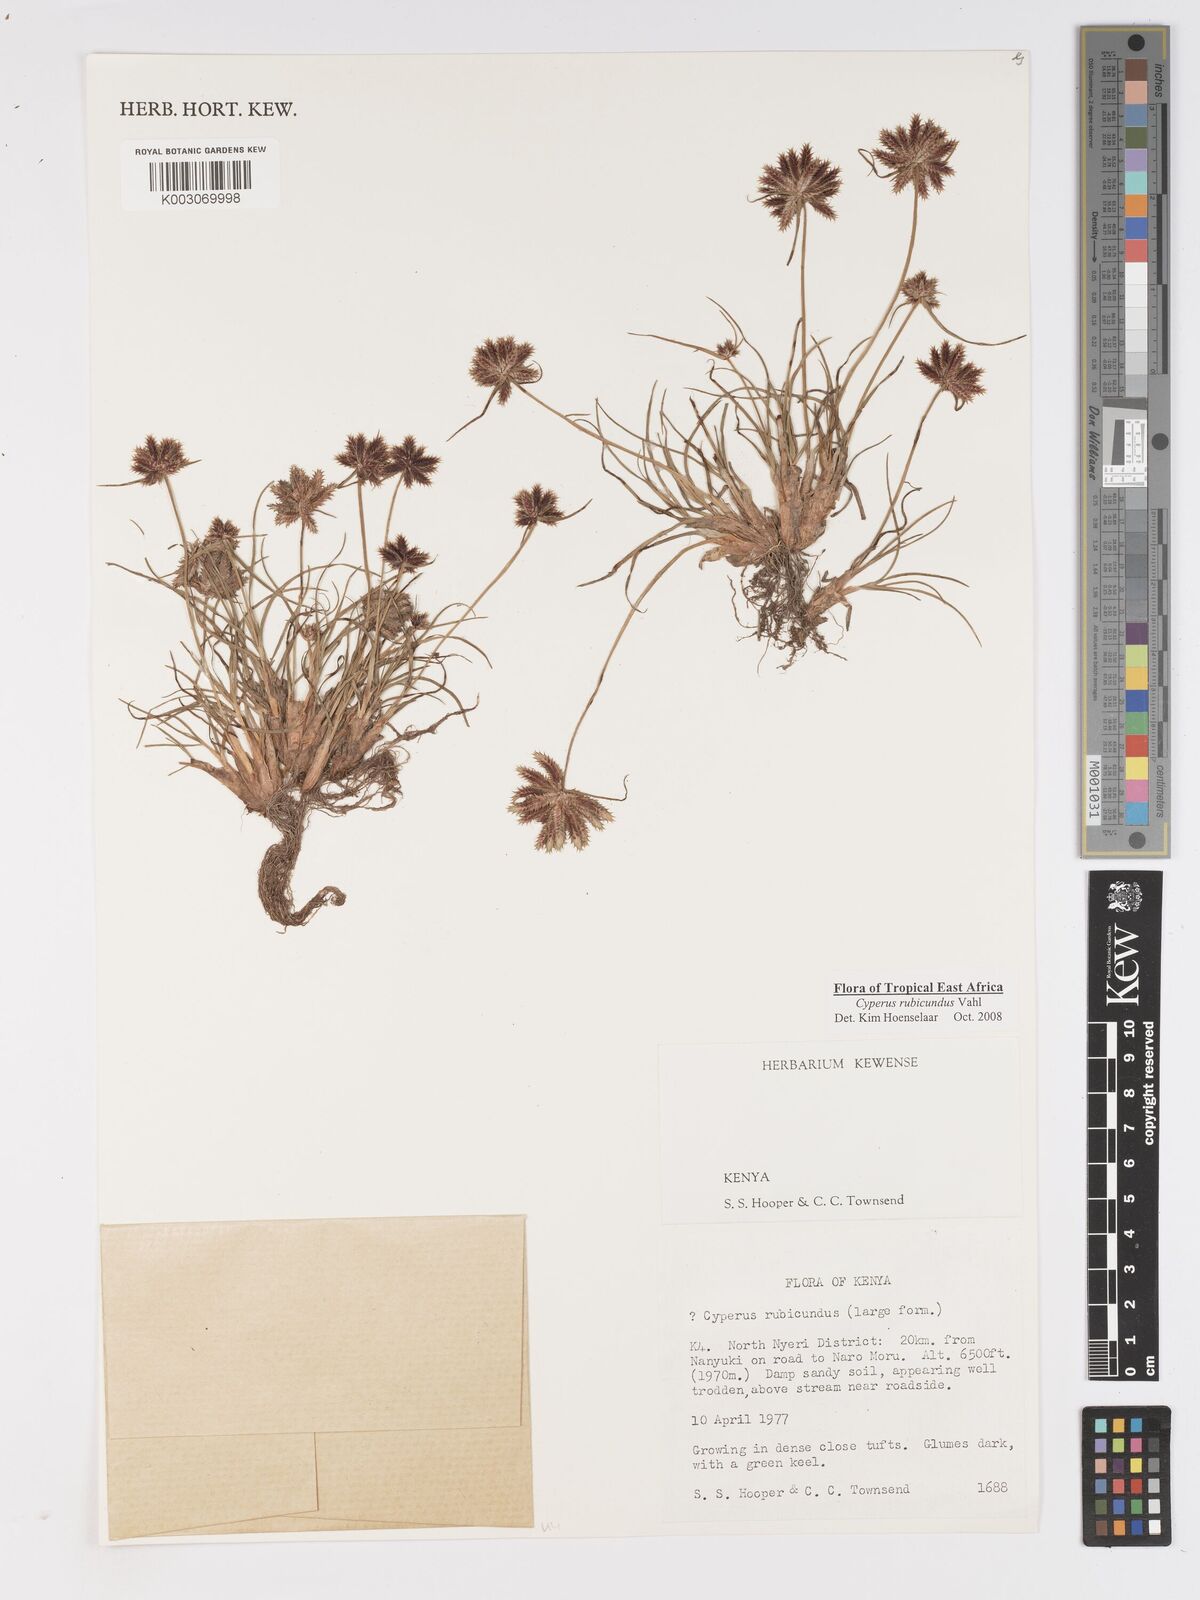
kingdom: Plantae
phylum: Tracheophyta
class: Liliopsida
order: Poales
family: Cyperaceae
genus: Cyperus
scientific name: Cyperus rubicundus
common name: Coco-grass
